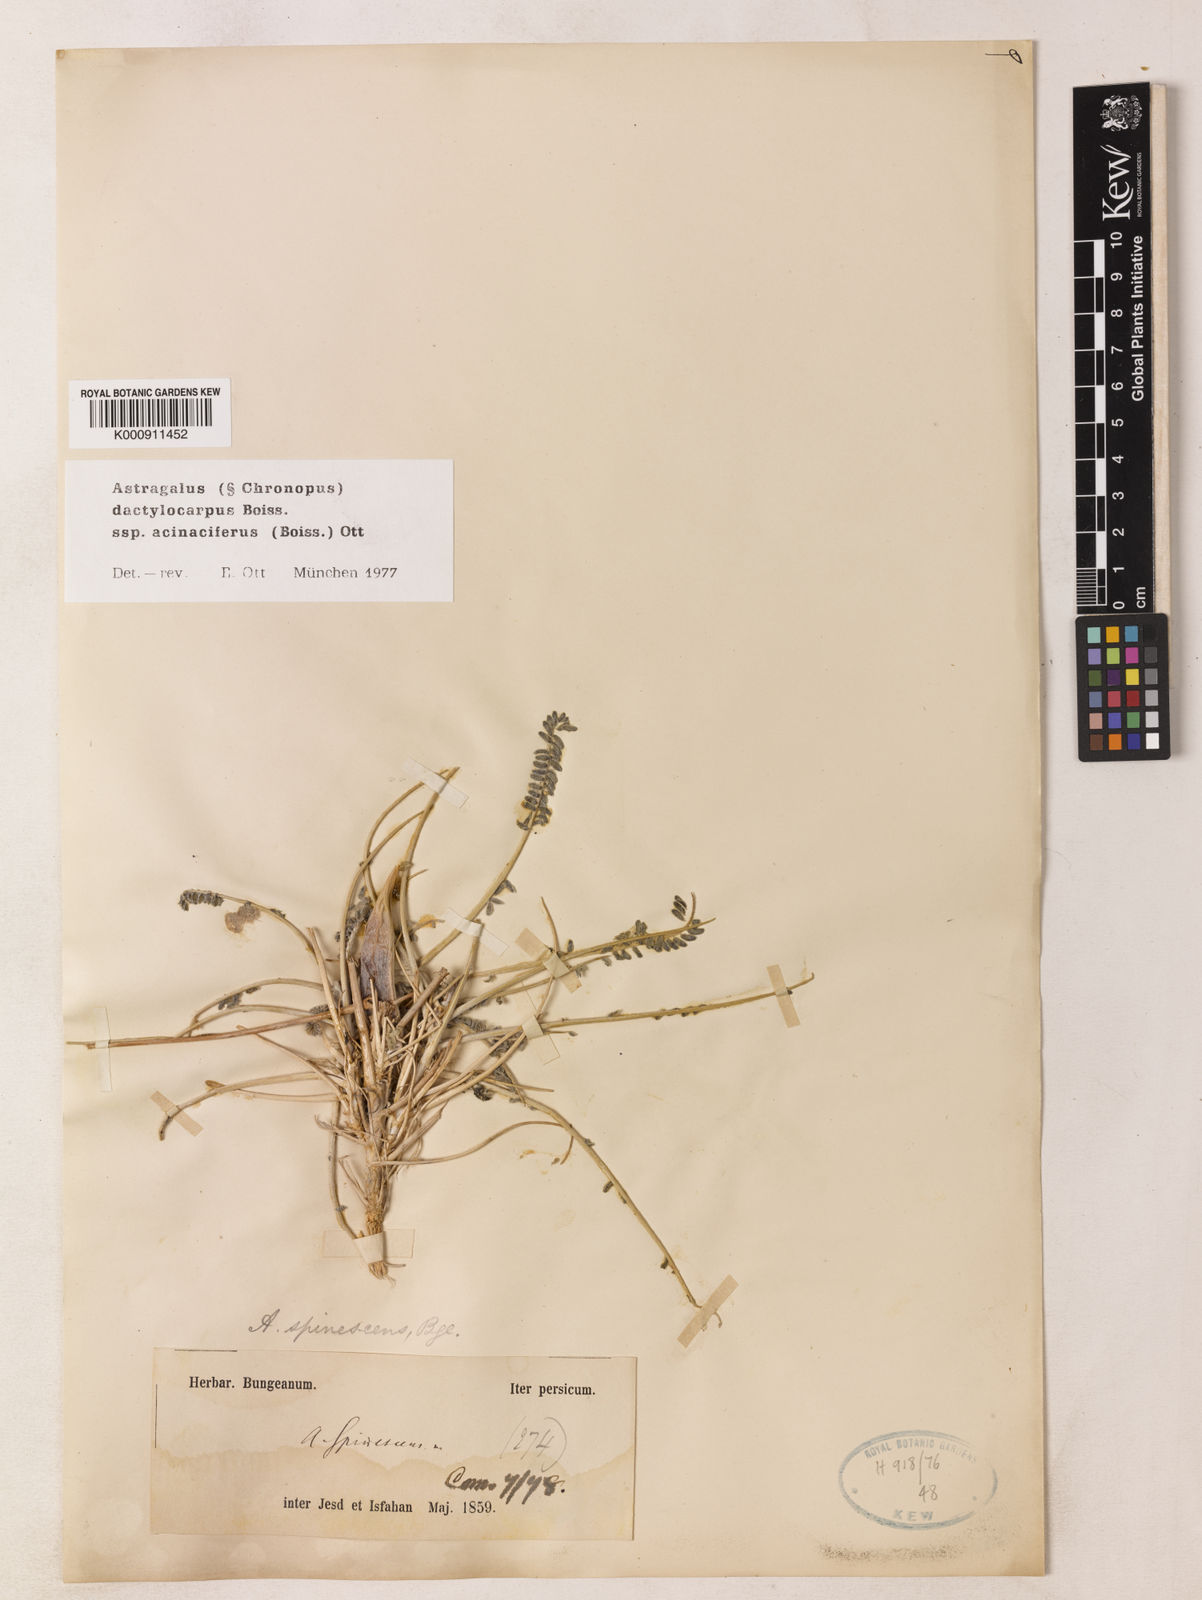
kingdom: Plantae
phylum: Tracheophyta
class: Magnoliopsida
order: Fabales
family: Fabaceae
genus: Astragalus
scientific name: Astragalus dactylocarpus
